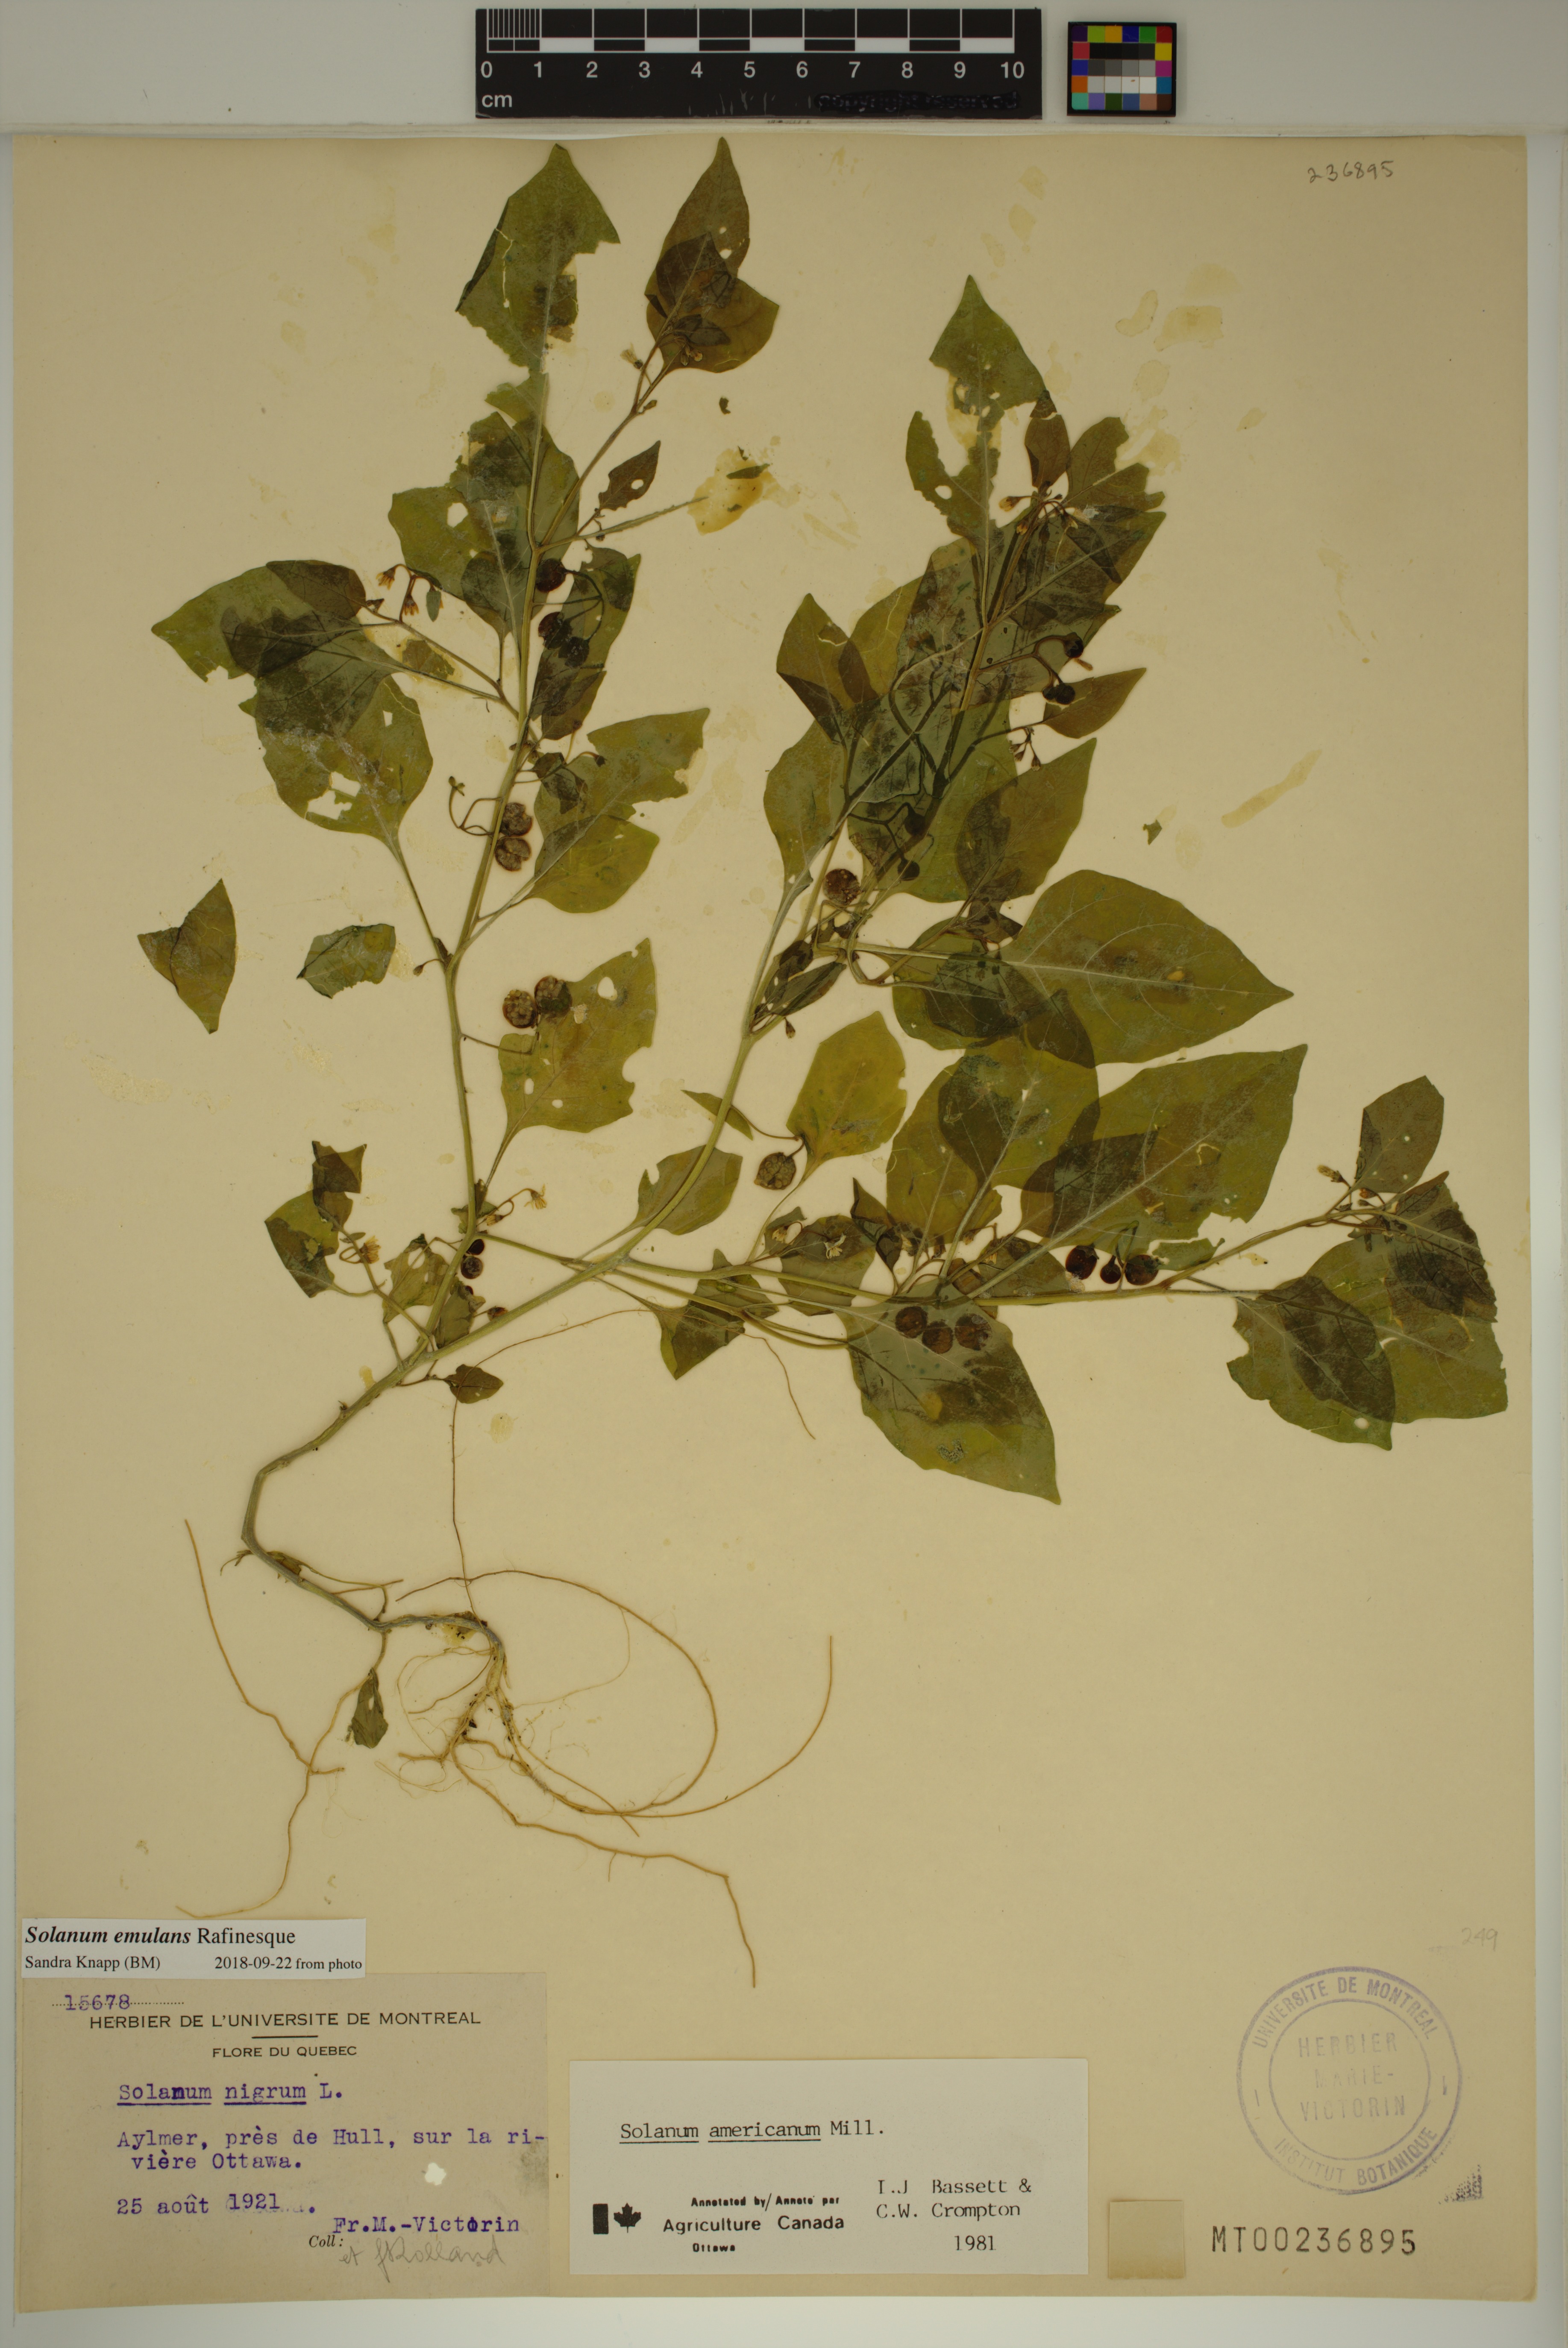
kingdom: Plantae
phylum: Tracheophyta
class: Magnoliopsida
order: Solanales
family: Solanaceae
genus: Solanum
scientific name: Solanum emulans
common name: Eastern black nightshade
